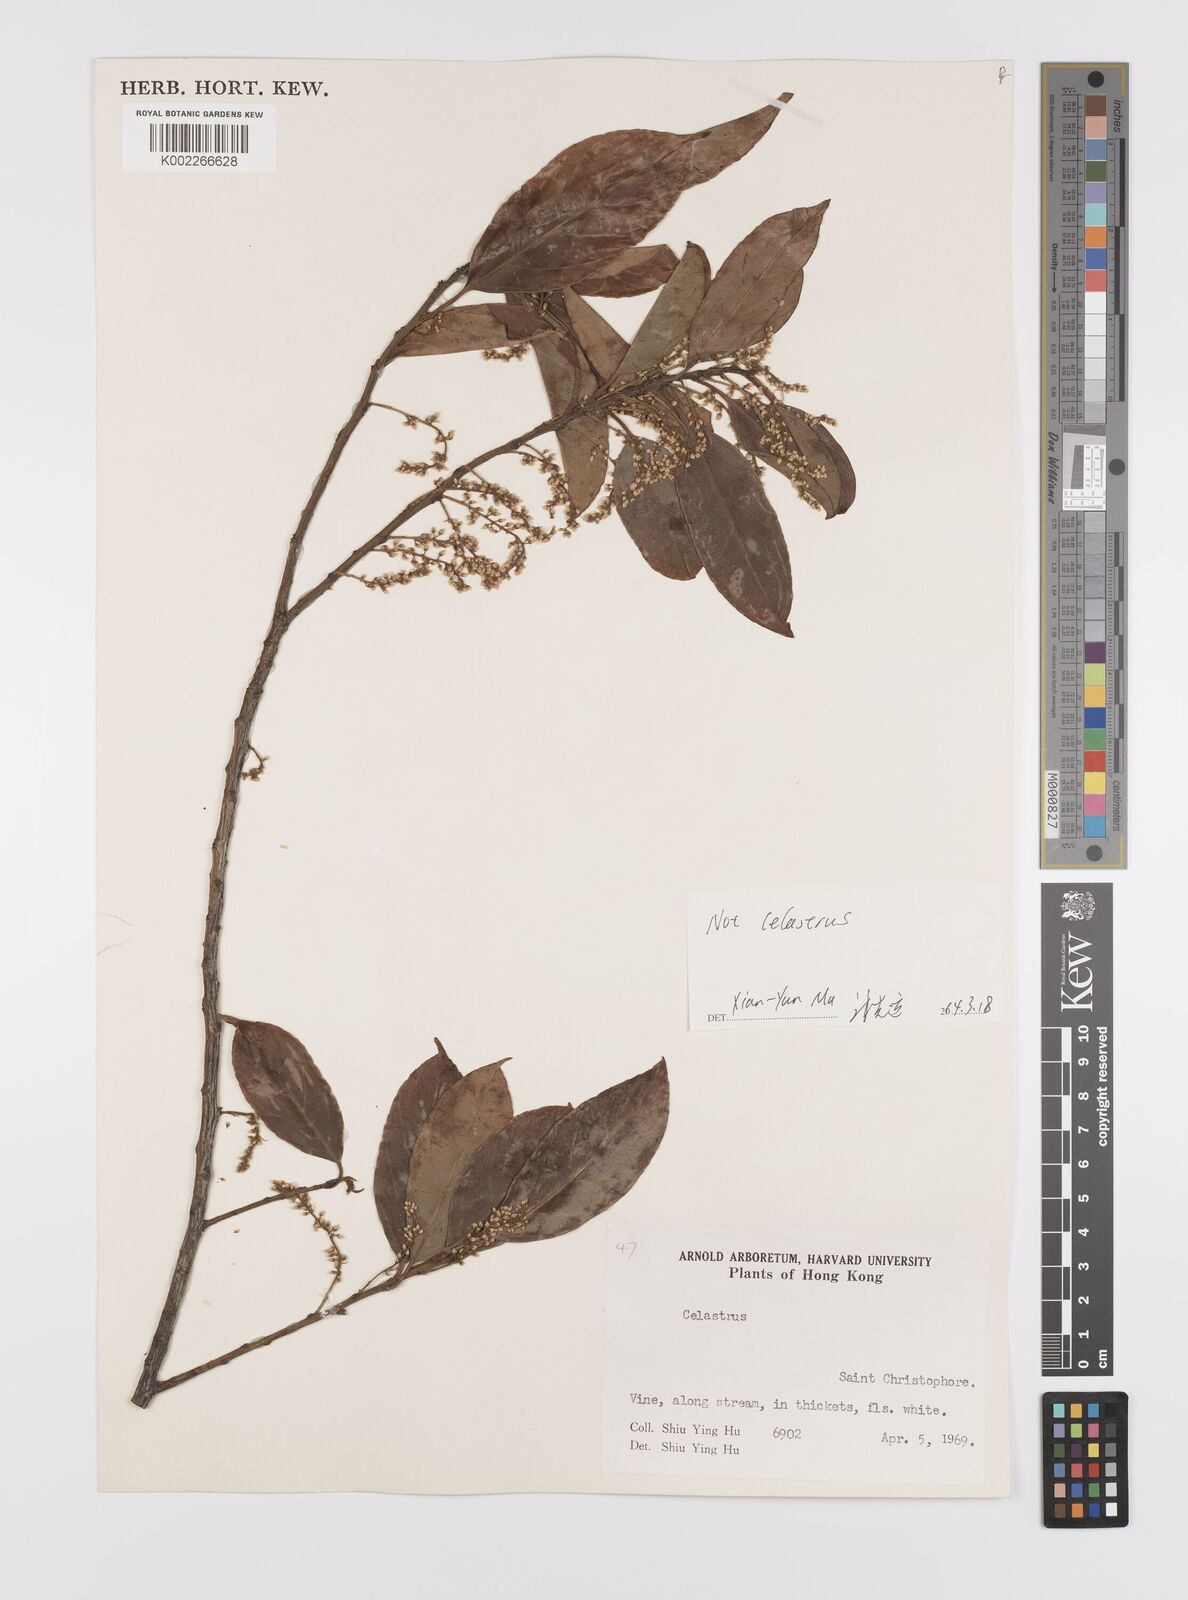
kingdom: Plantae
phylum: Tracheophyta
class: Magnoliopsida
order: Celastrales
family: Celastraceae
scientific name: Celastraceae
